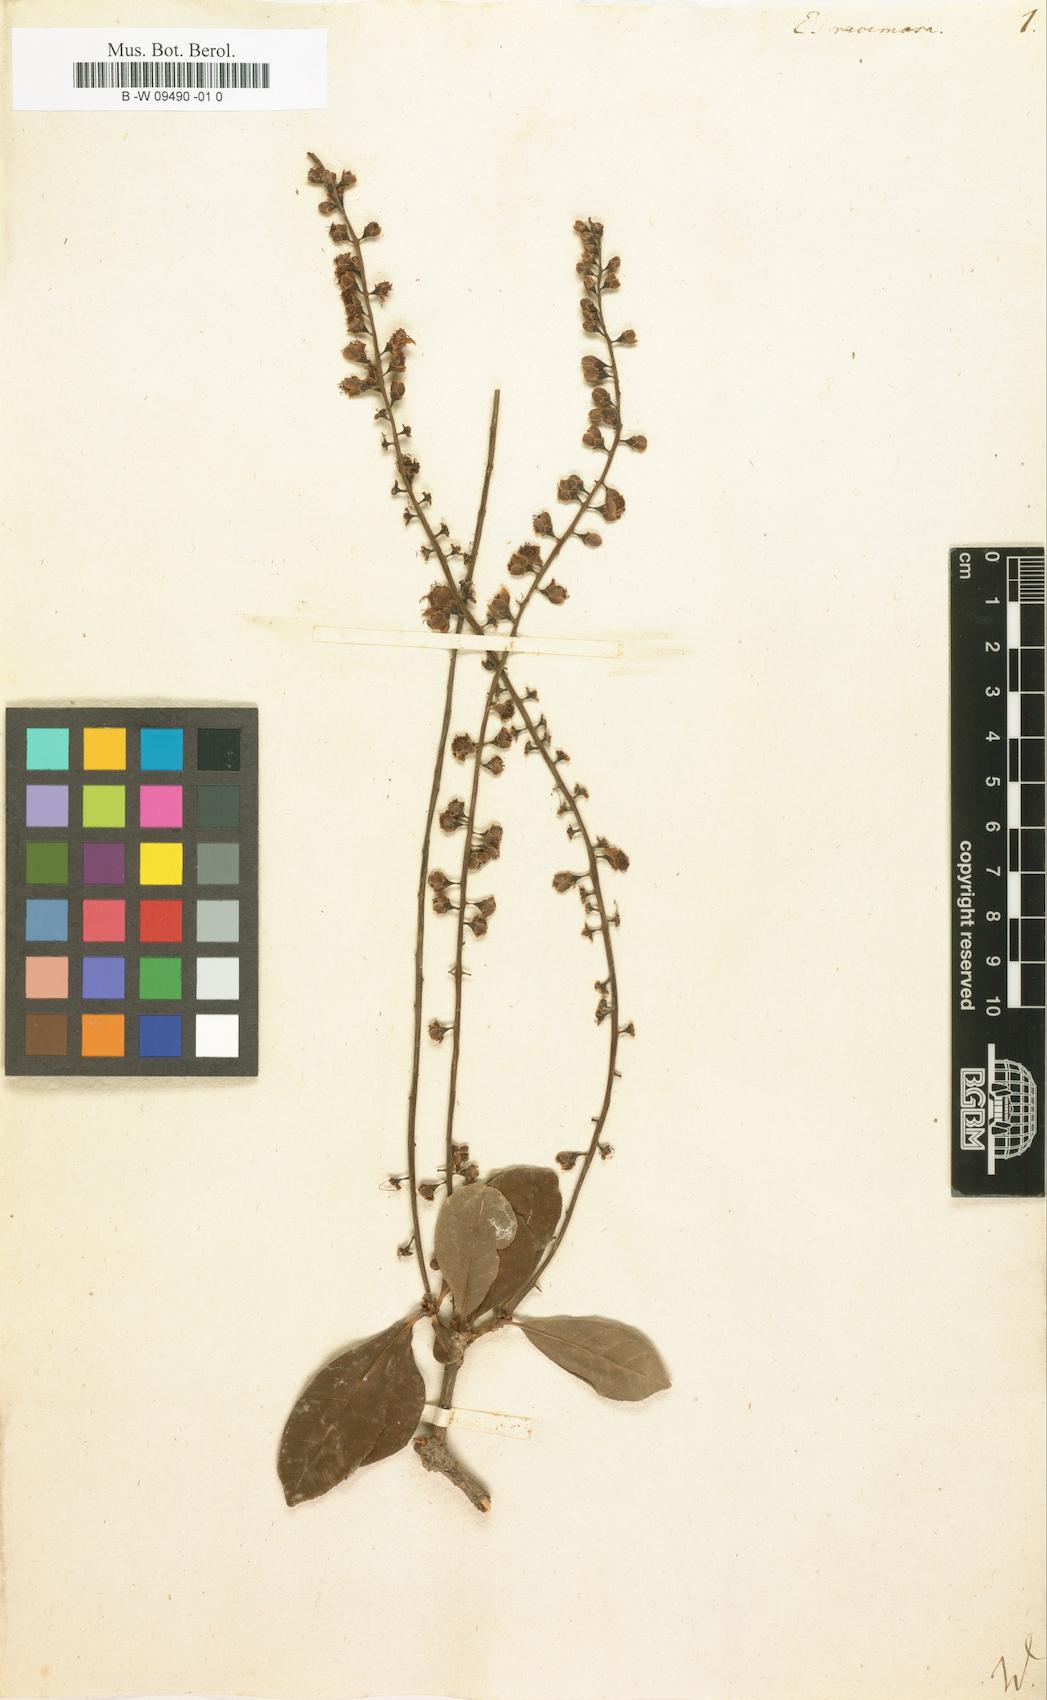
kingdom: Plantae
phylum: Tracheophyta
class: Magnoliopsida
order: Ericales
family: Lecythidaceae
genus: Barringtonia
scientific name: Barringtonia racemosa
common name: Brackwater mangrove
